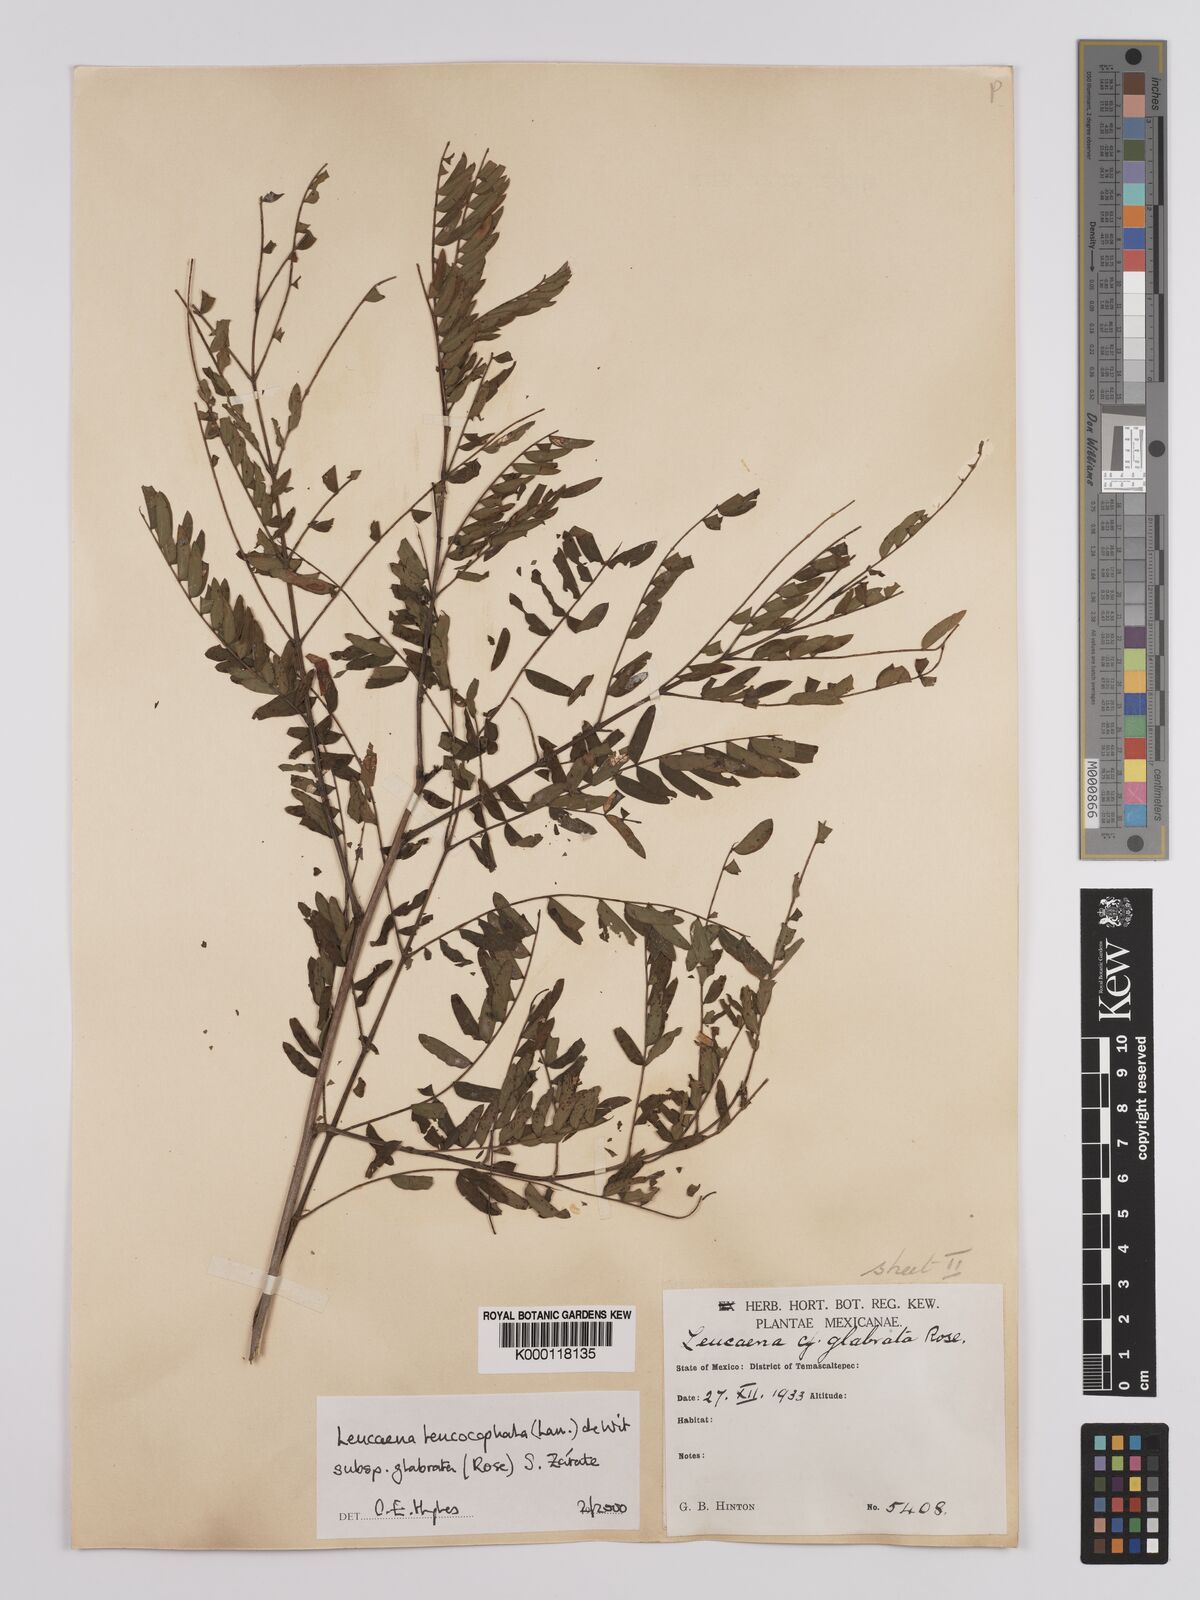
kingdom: Plantae
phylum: Tracheophyta
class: Magnoliopsida
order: Fabales
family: Fabaceae
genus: Leucaena
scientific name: Leucaena leucocephala
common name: White leadtree
